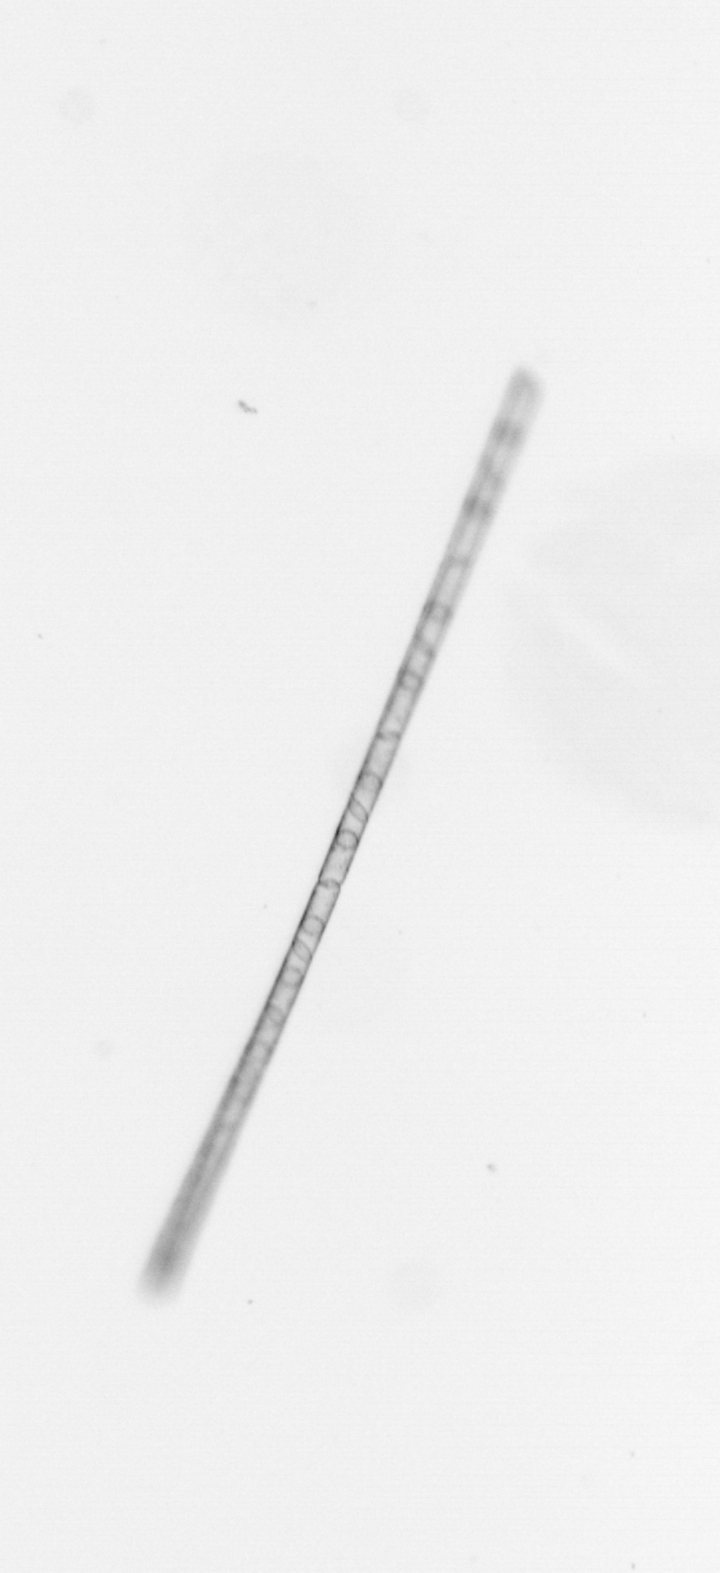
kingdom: Chromista
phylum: Ochrophyta
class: Bacillariophyceae
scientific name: Bacillariophyceae
